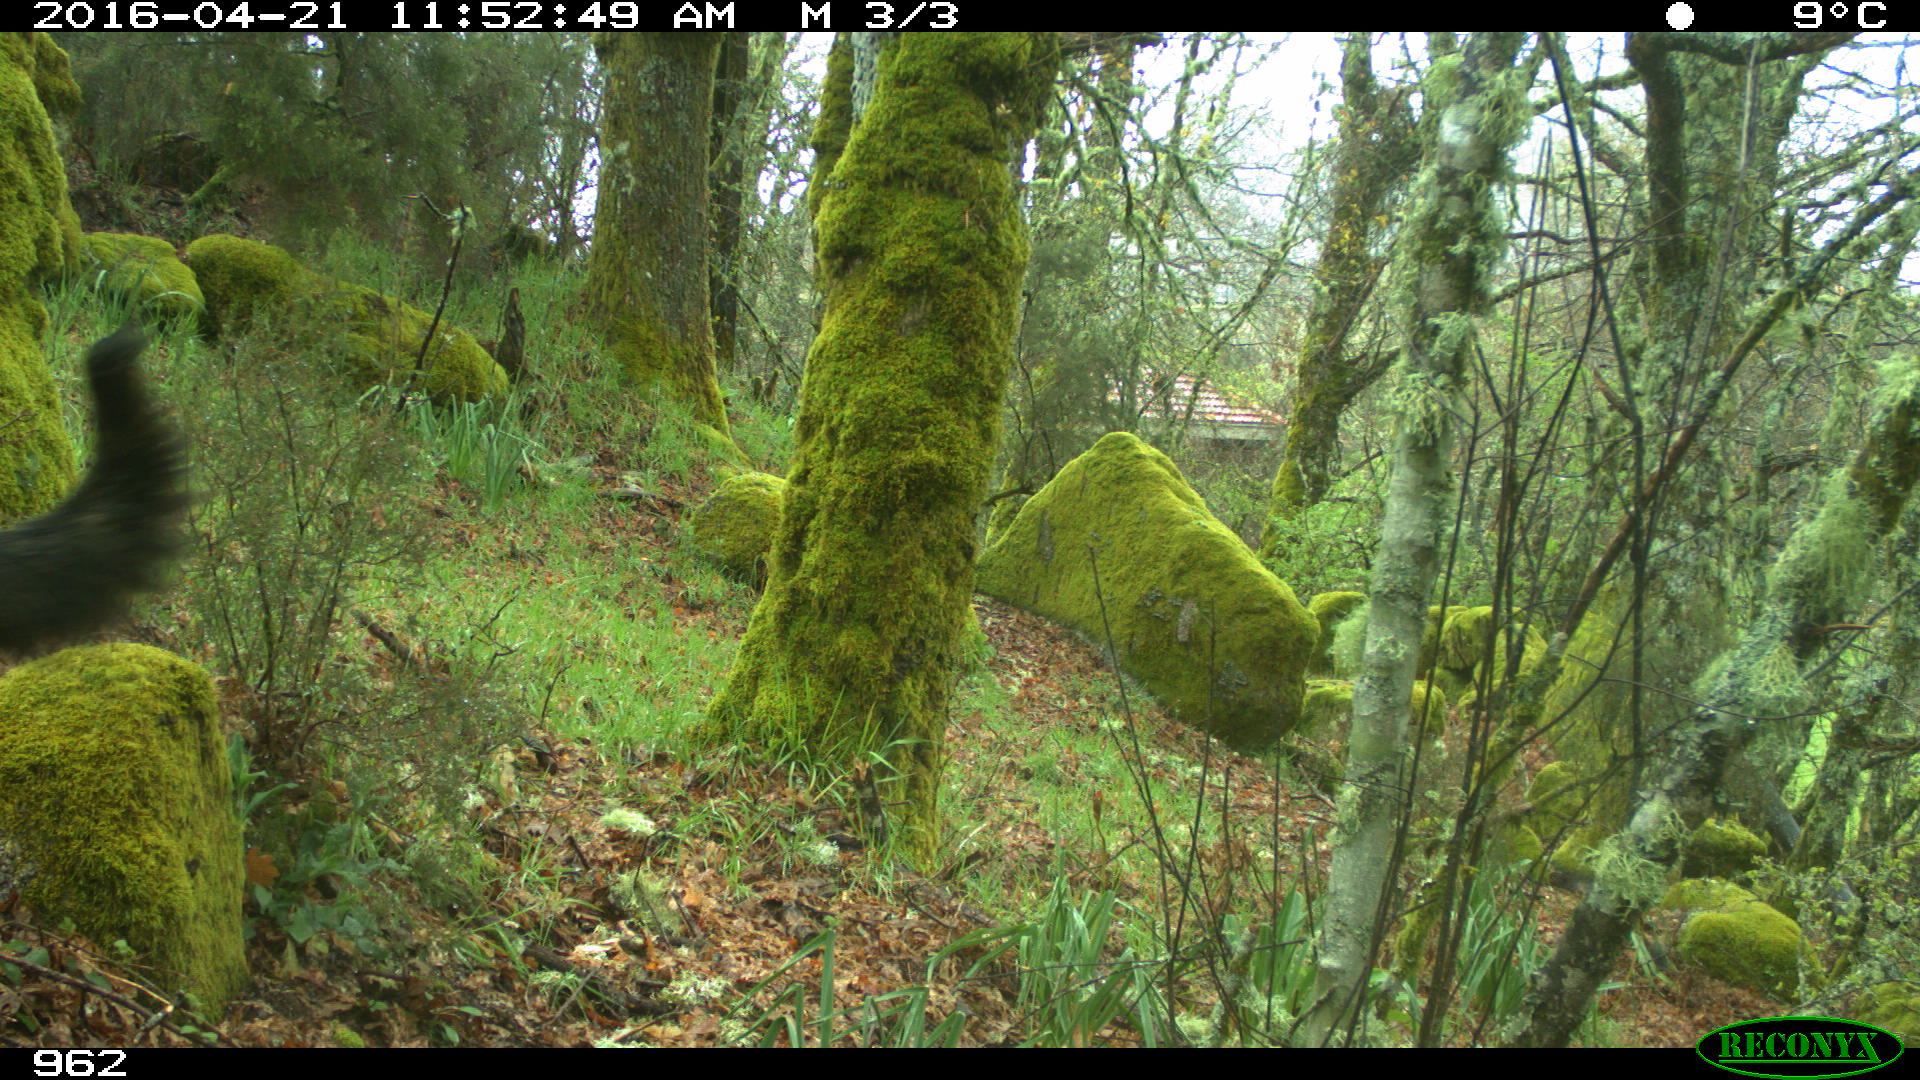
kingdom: Animalia
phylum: Chordata
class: Mammalia
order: Carnivora
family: Canidae
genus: Canis
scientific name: Canis lupus
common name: Gray wolf
